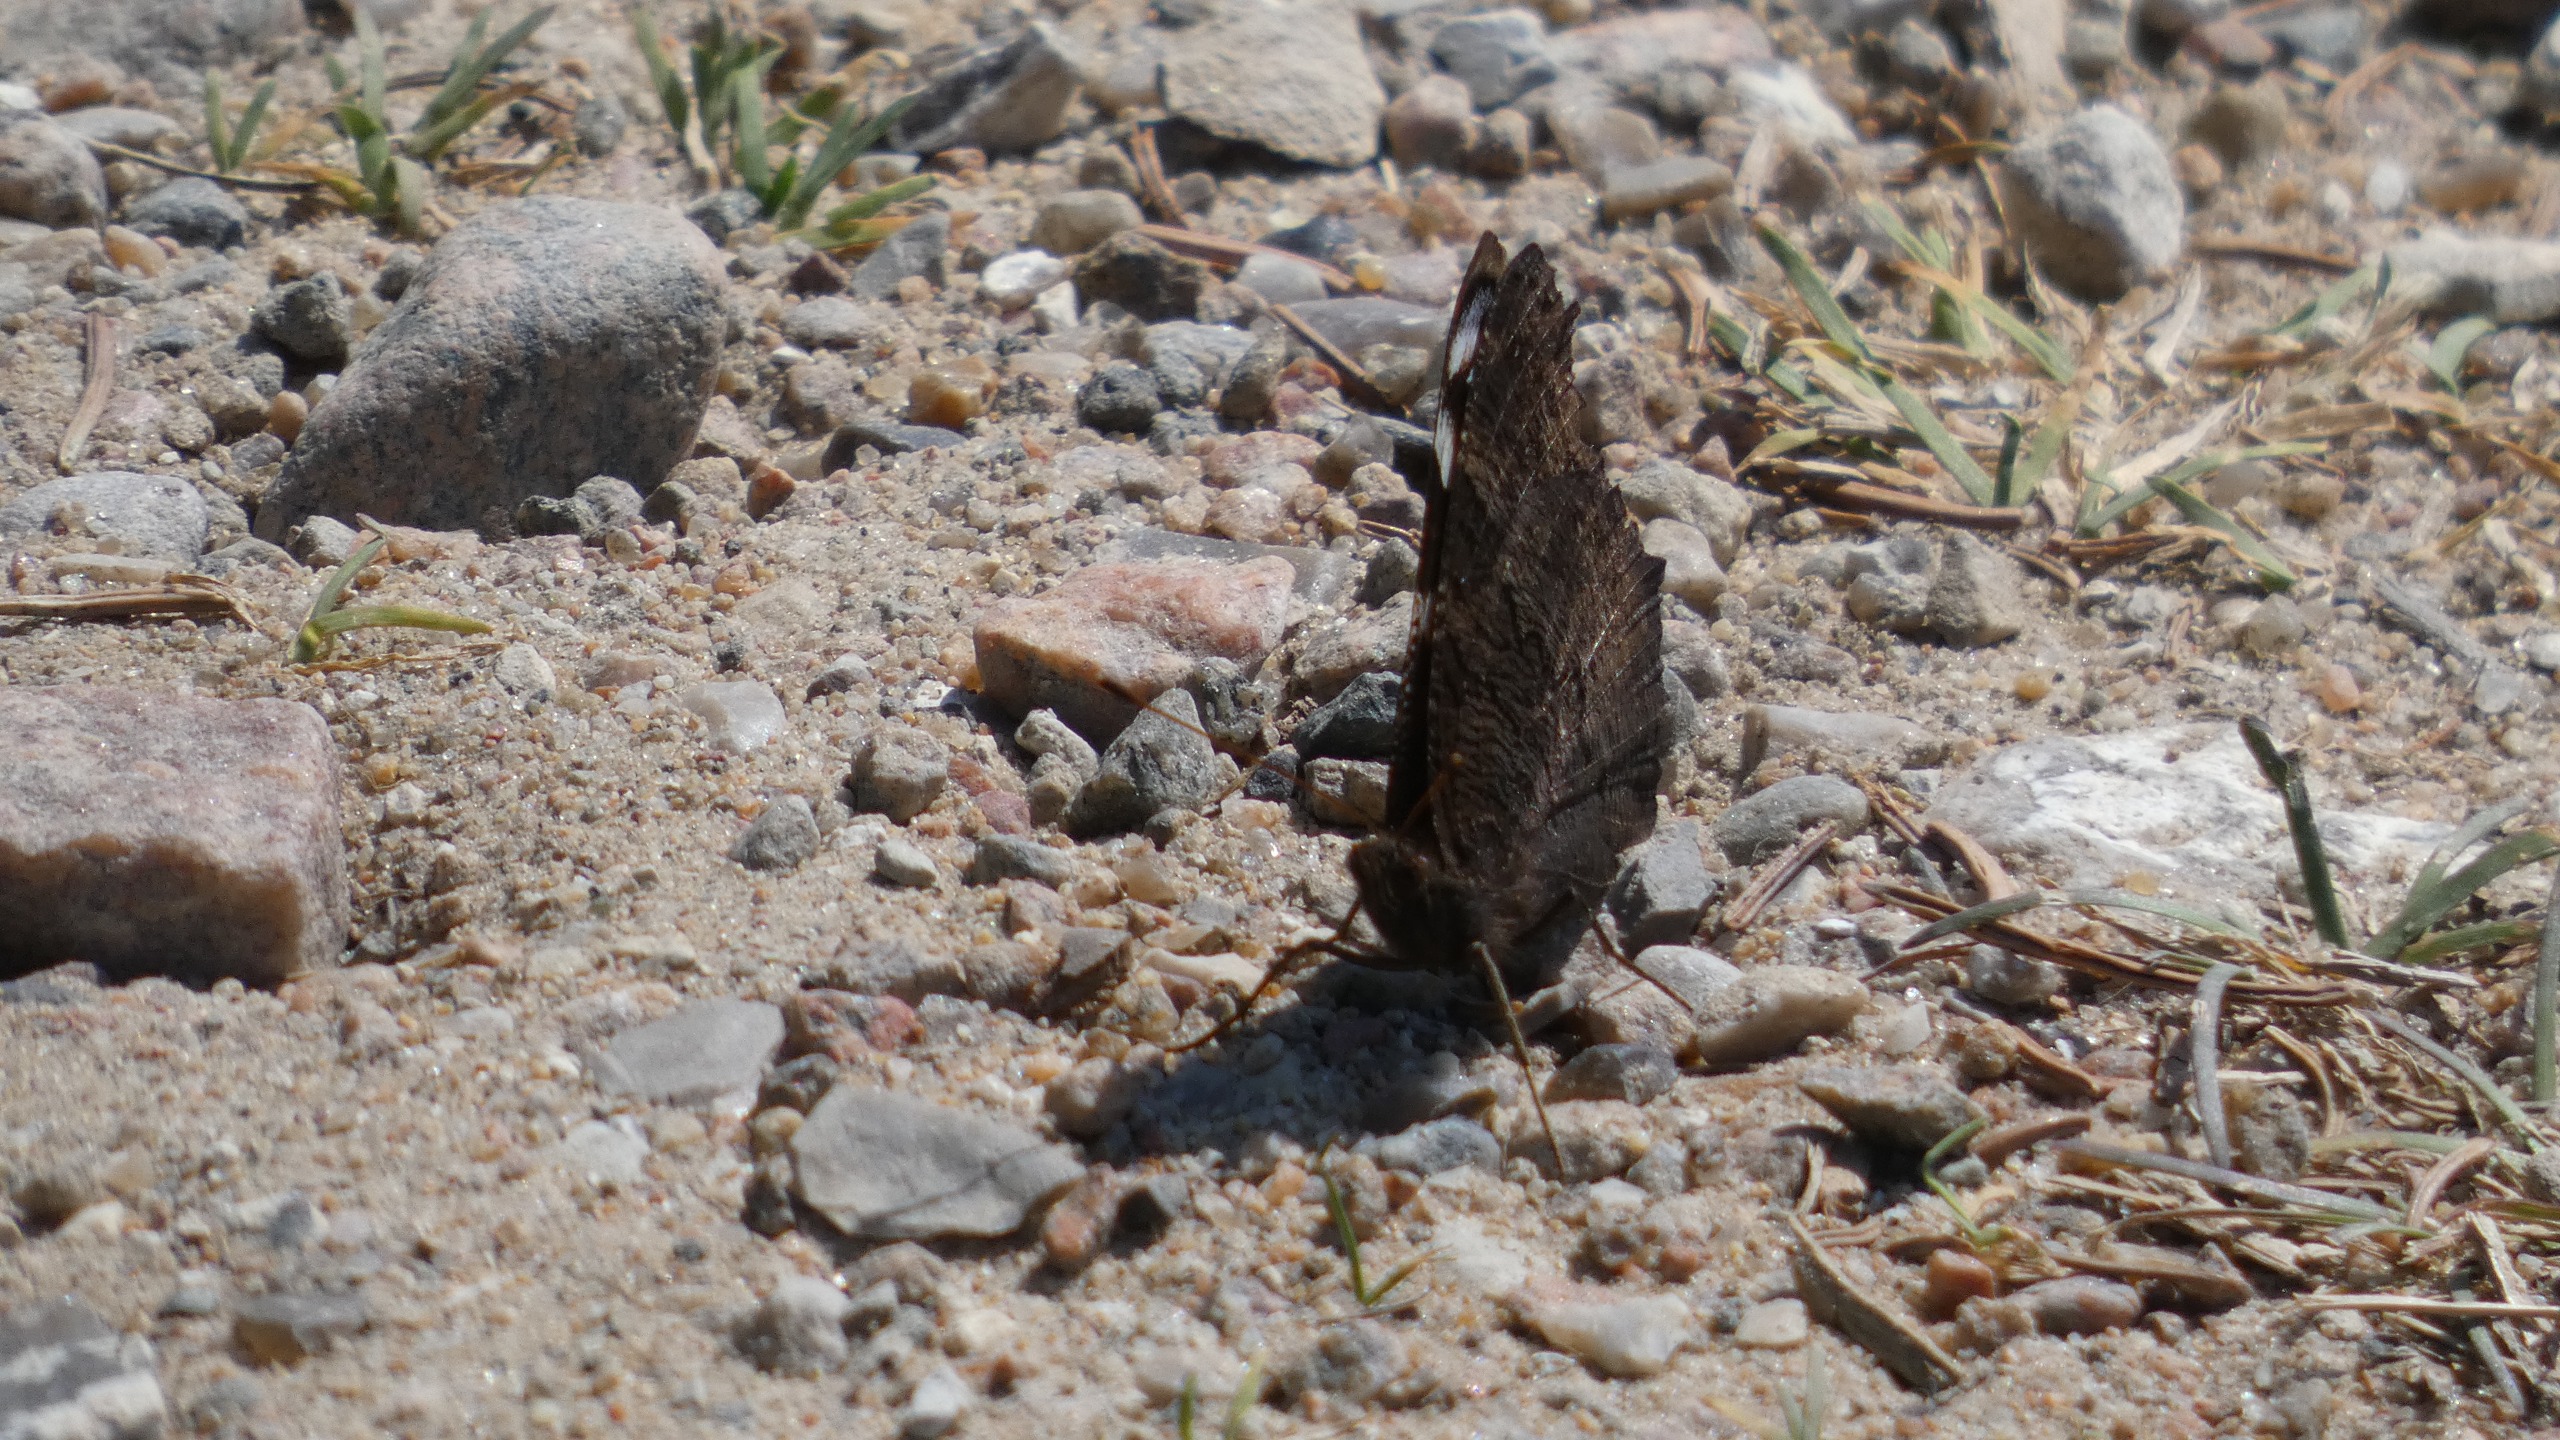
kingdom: Animalia
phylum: Arthropoda
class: Insecta
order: Lepidoptera
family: Nymphalidae
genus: Aglais
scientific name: Aglais io
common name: Dagpåfugleøje
